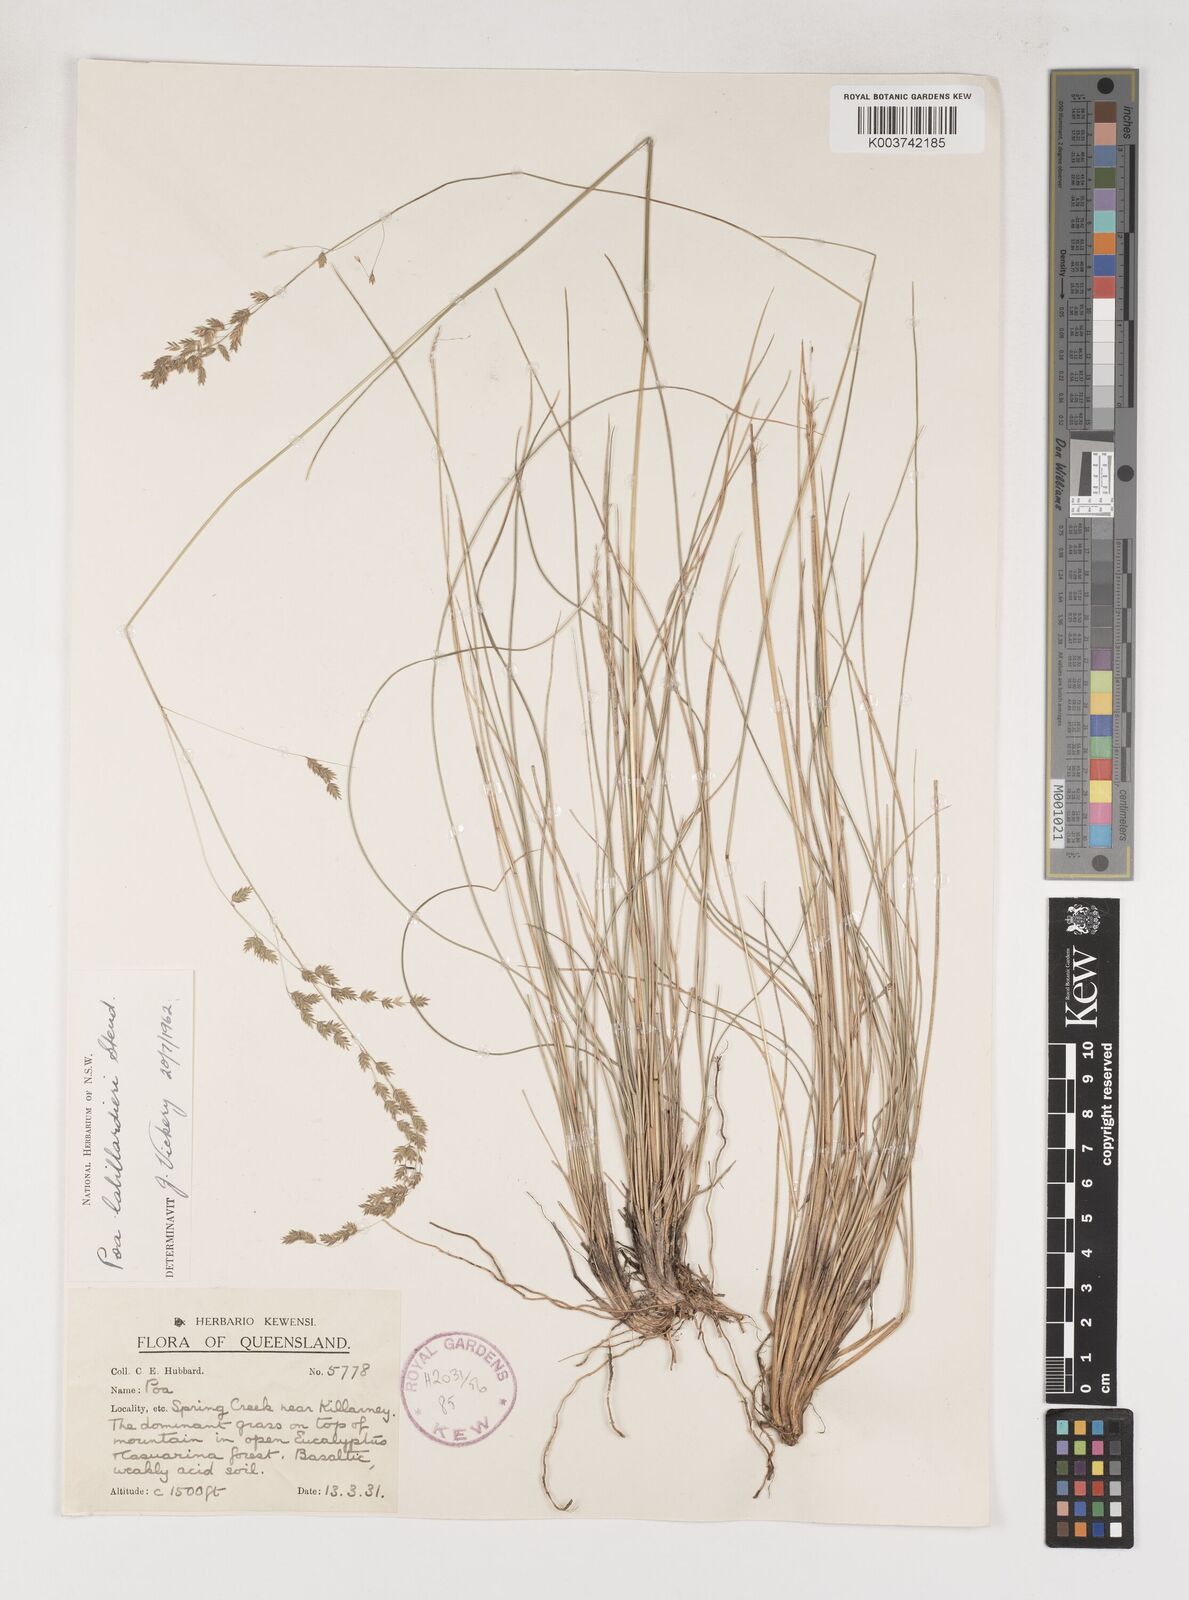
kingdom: Plantae
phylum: Tracheophyta
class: Liliopsida
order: Poales
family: Poaceae
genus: Poa
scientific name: Poa labillardierei
